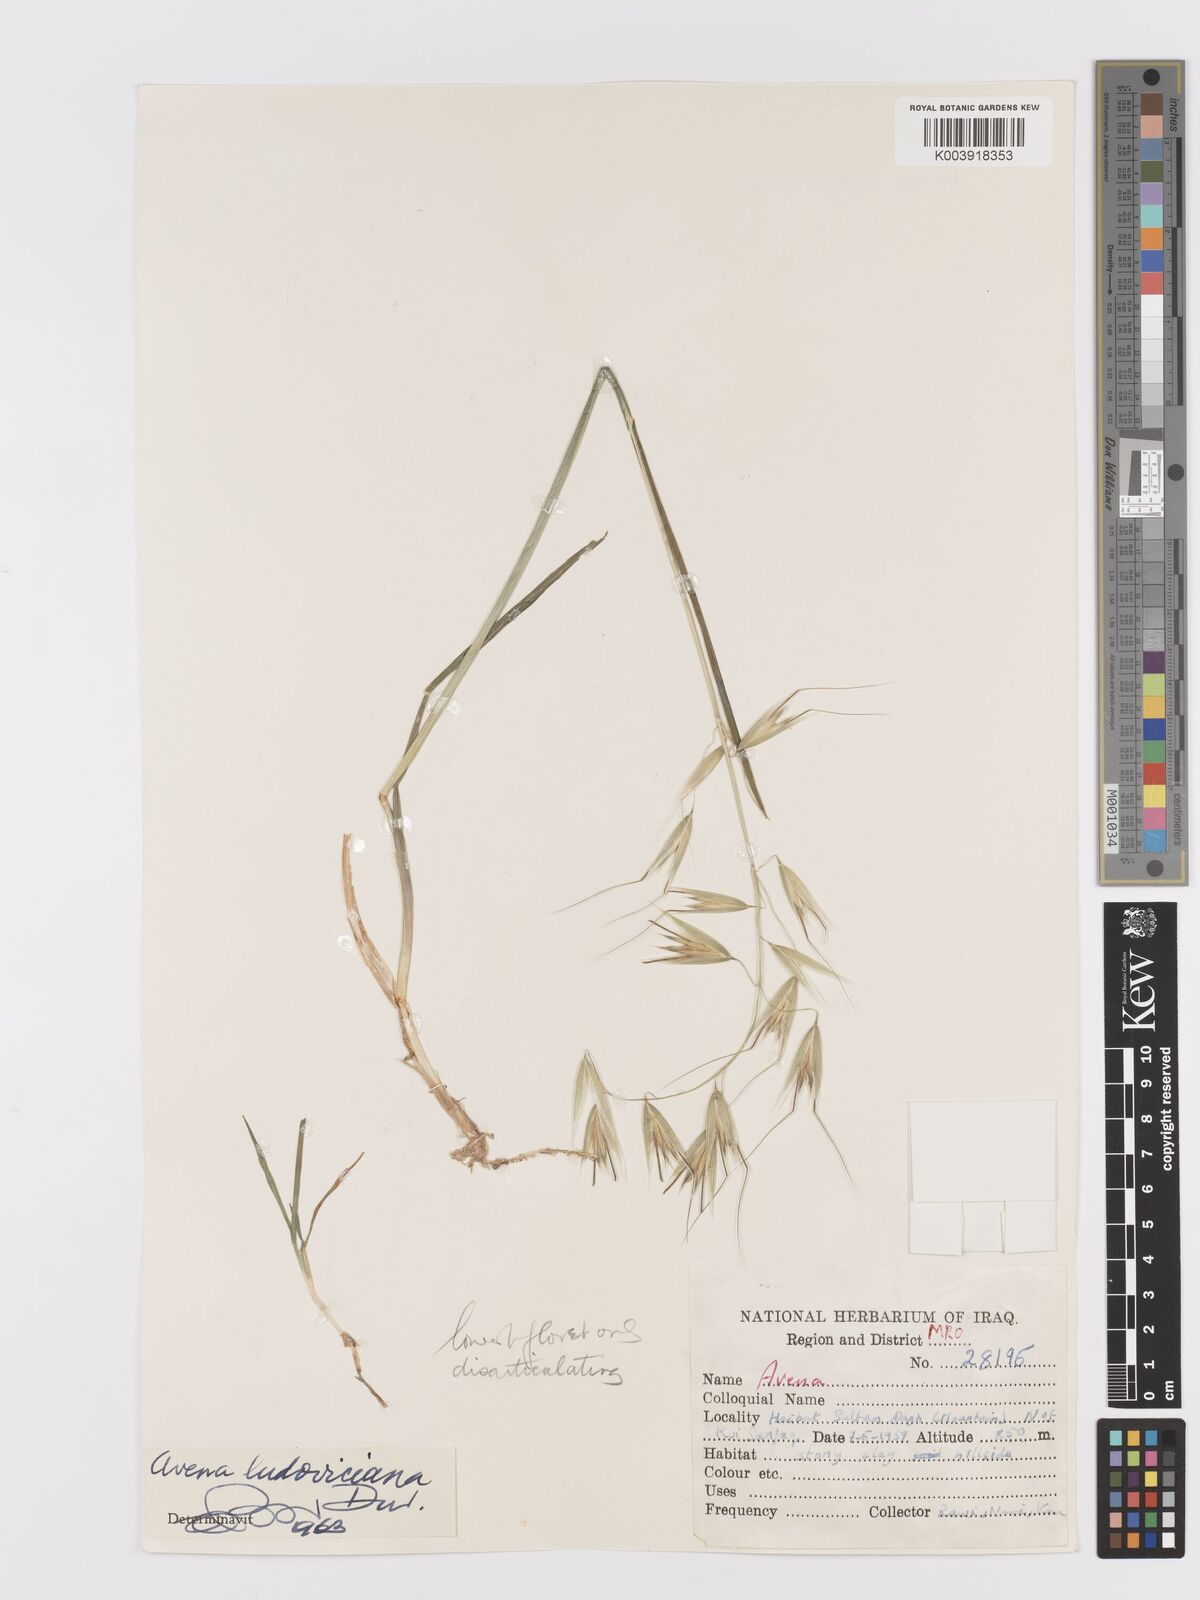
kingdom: Plantae
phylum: Tracheophyta
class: Liliopsida
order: Poales
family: Poaceae
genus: Avena
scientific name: Avena sterilis
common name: Animated oat
